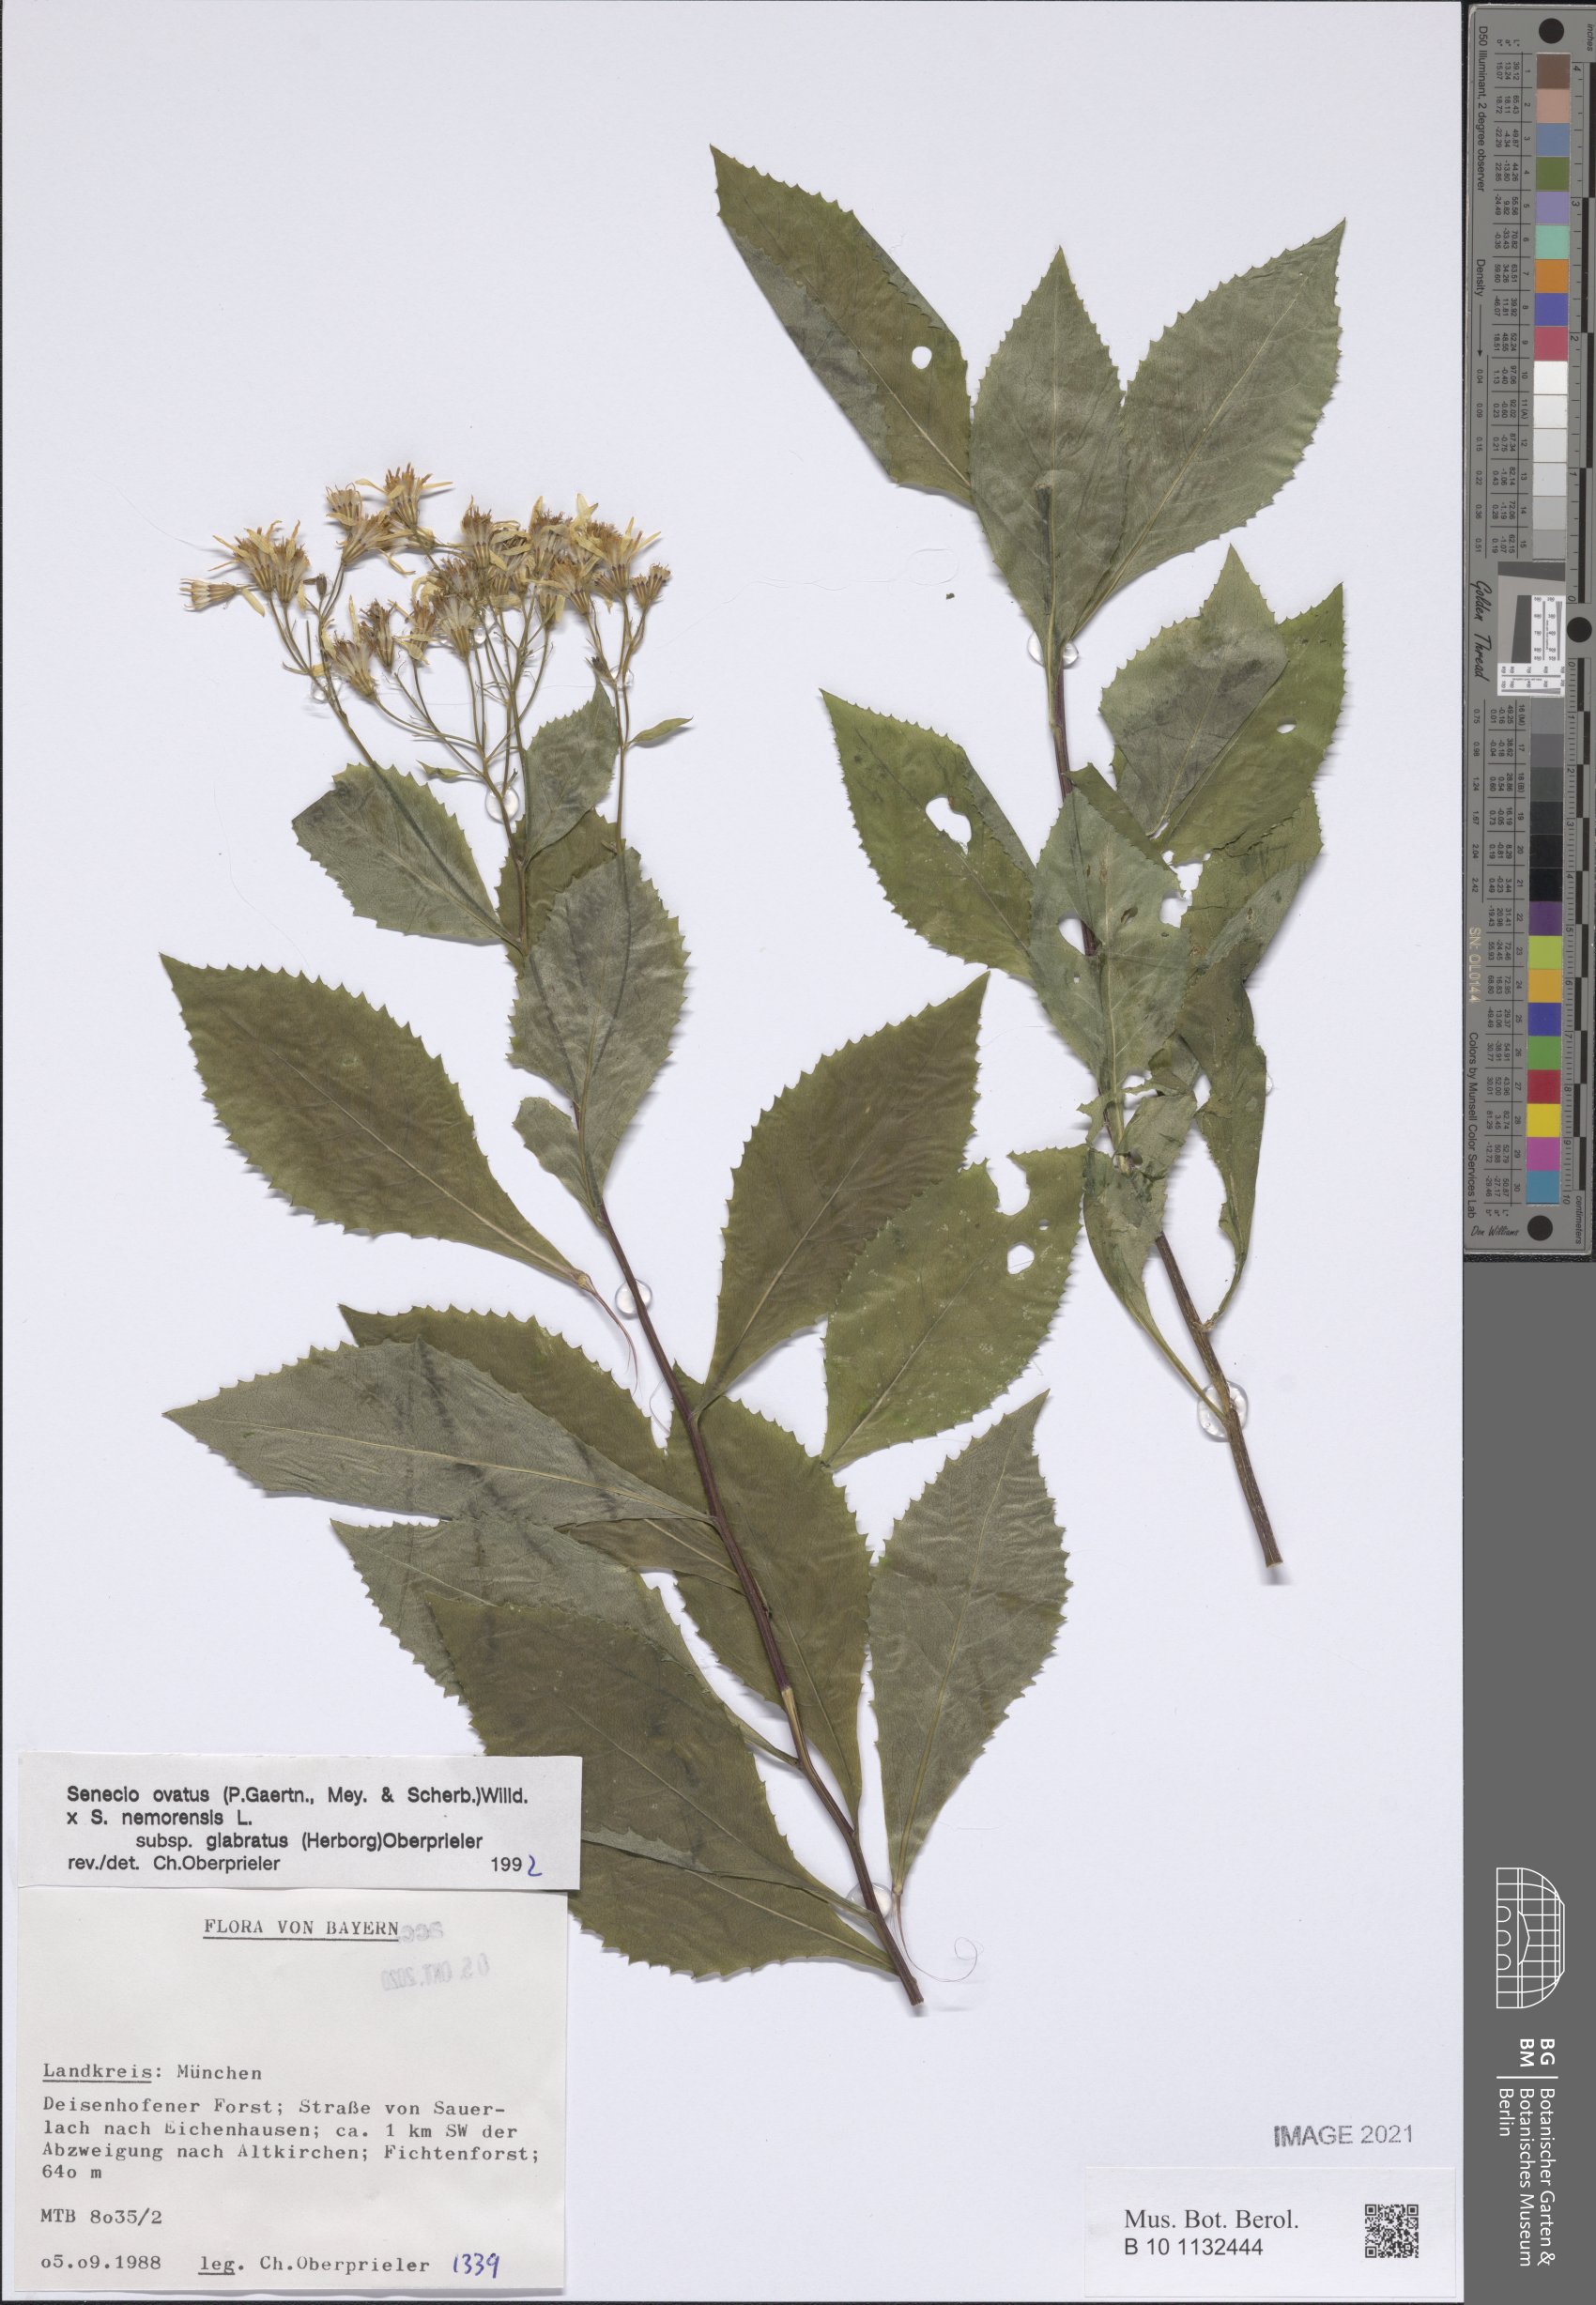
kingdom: Plantae
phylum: Tracheophyta
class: Magnoliopsida
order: Asterales
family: Asteraceae
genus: Senecio
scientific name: Senecio ovatus
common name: Wood ragwort
